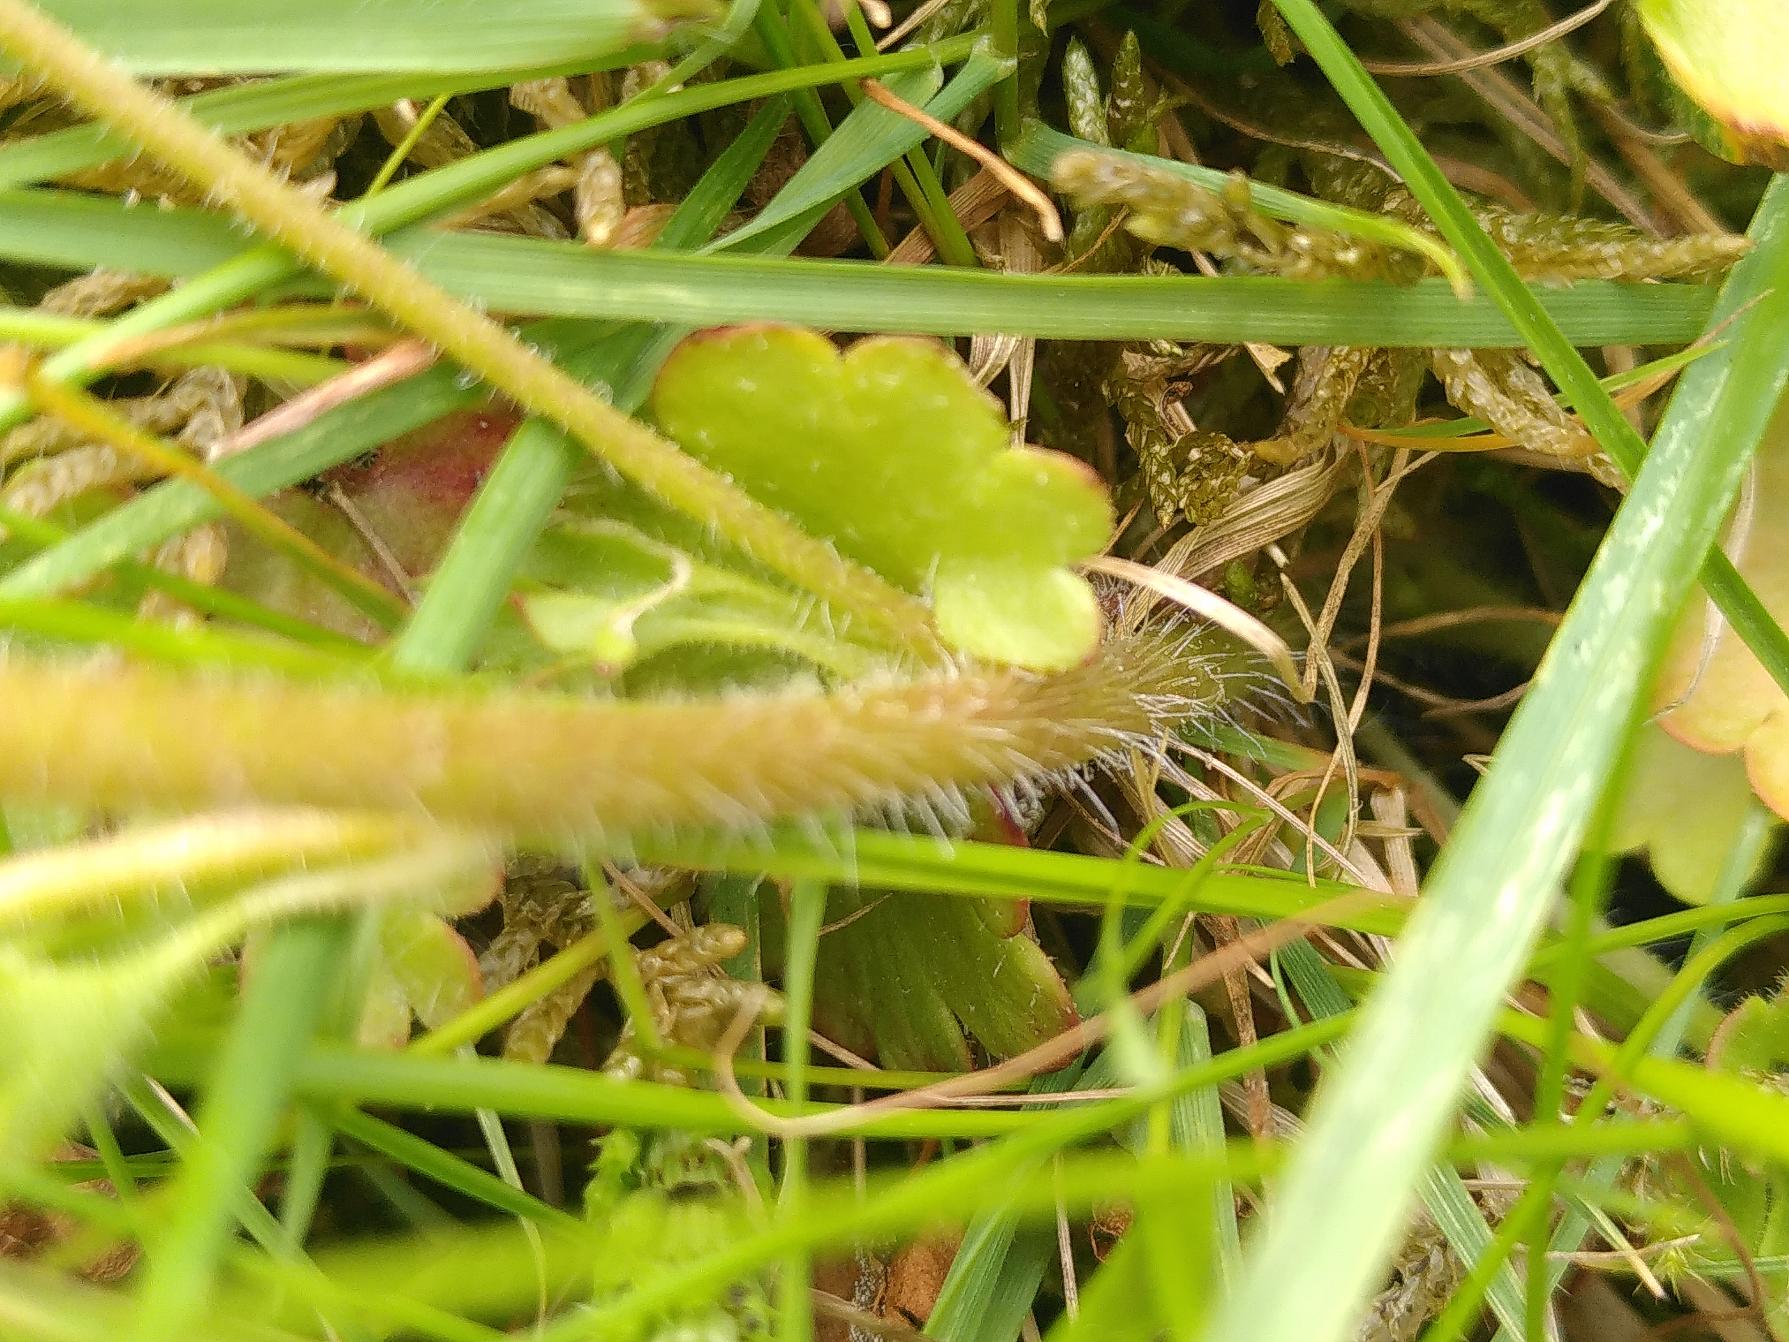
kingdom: Plantae
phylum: Tracheophyta
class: Magnoliopsida
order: Saxifragales
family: Saxifragaceae
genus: Saxifraga
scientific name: Saxifraga granulata
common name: Kornet stenbræk
